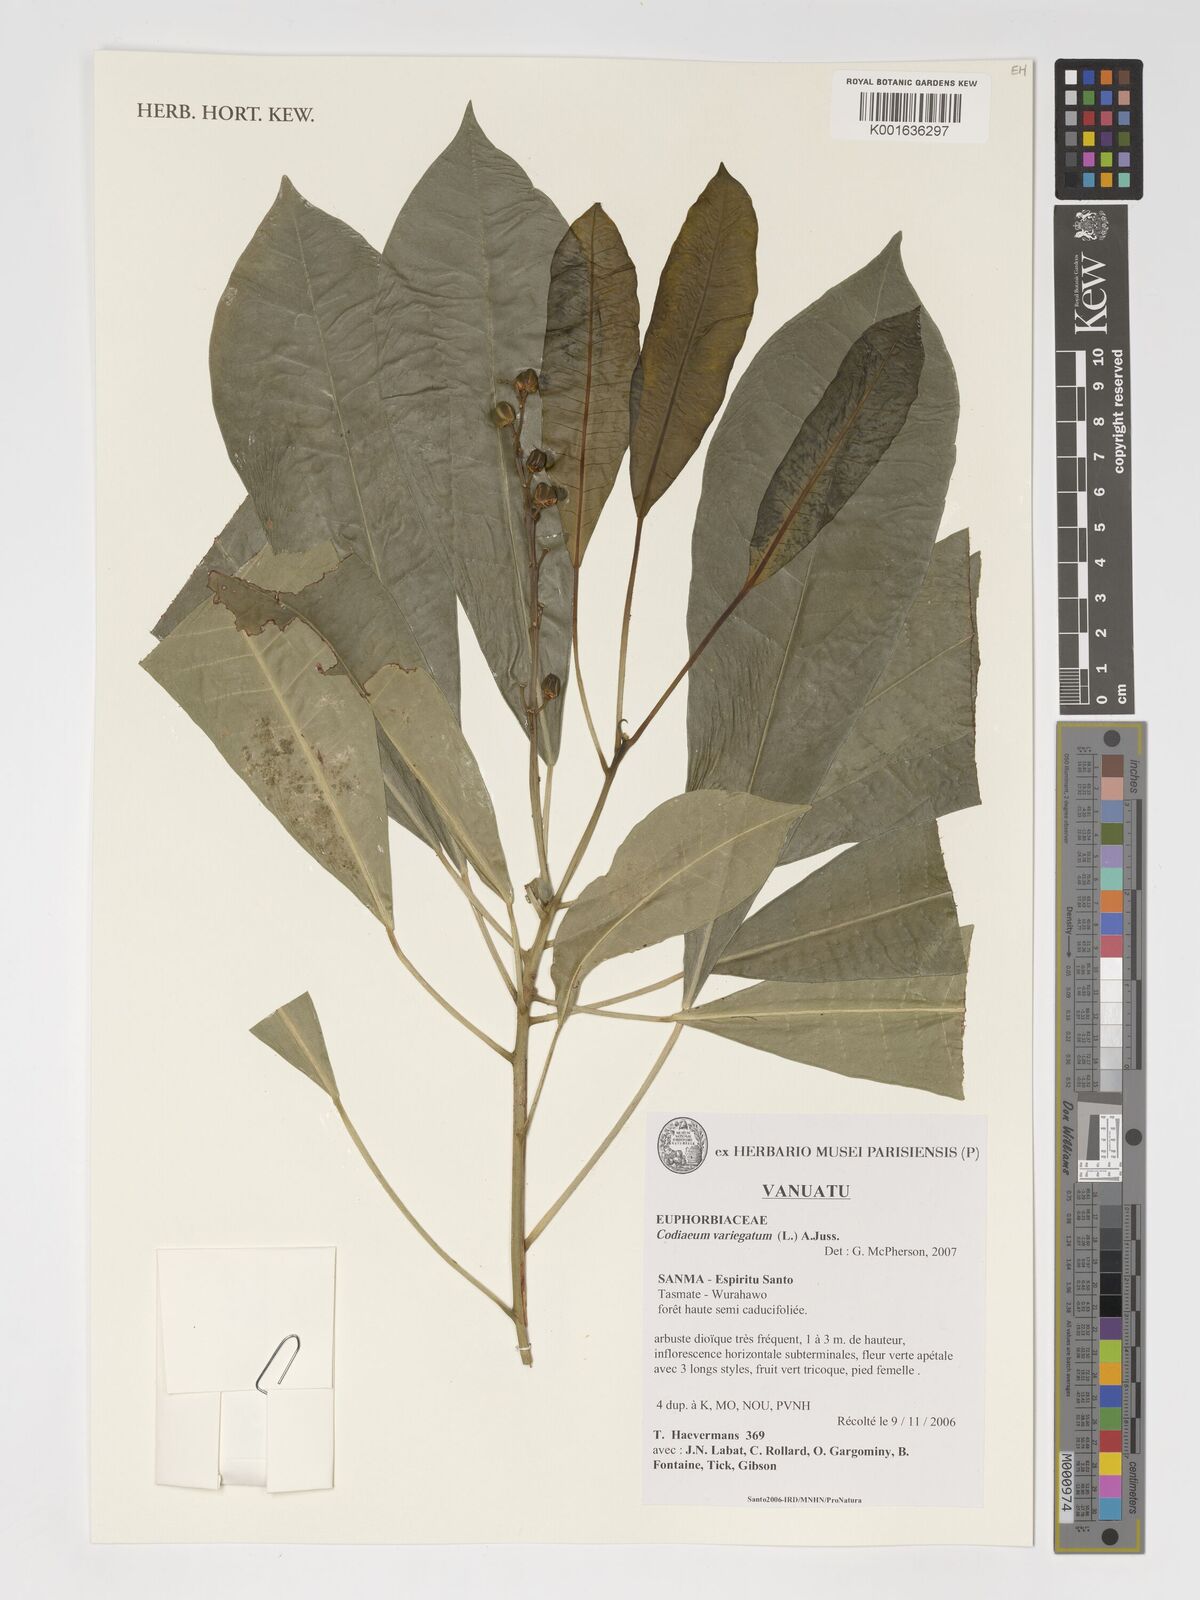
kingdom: Plantae
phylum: Tracheophyta
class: Magnoliopsida
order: Malpighiales
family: Euphorbiaceae
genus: Codiaeum
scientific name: Codiaeum variegatum
